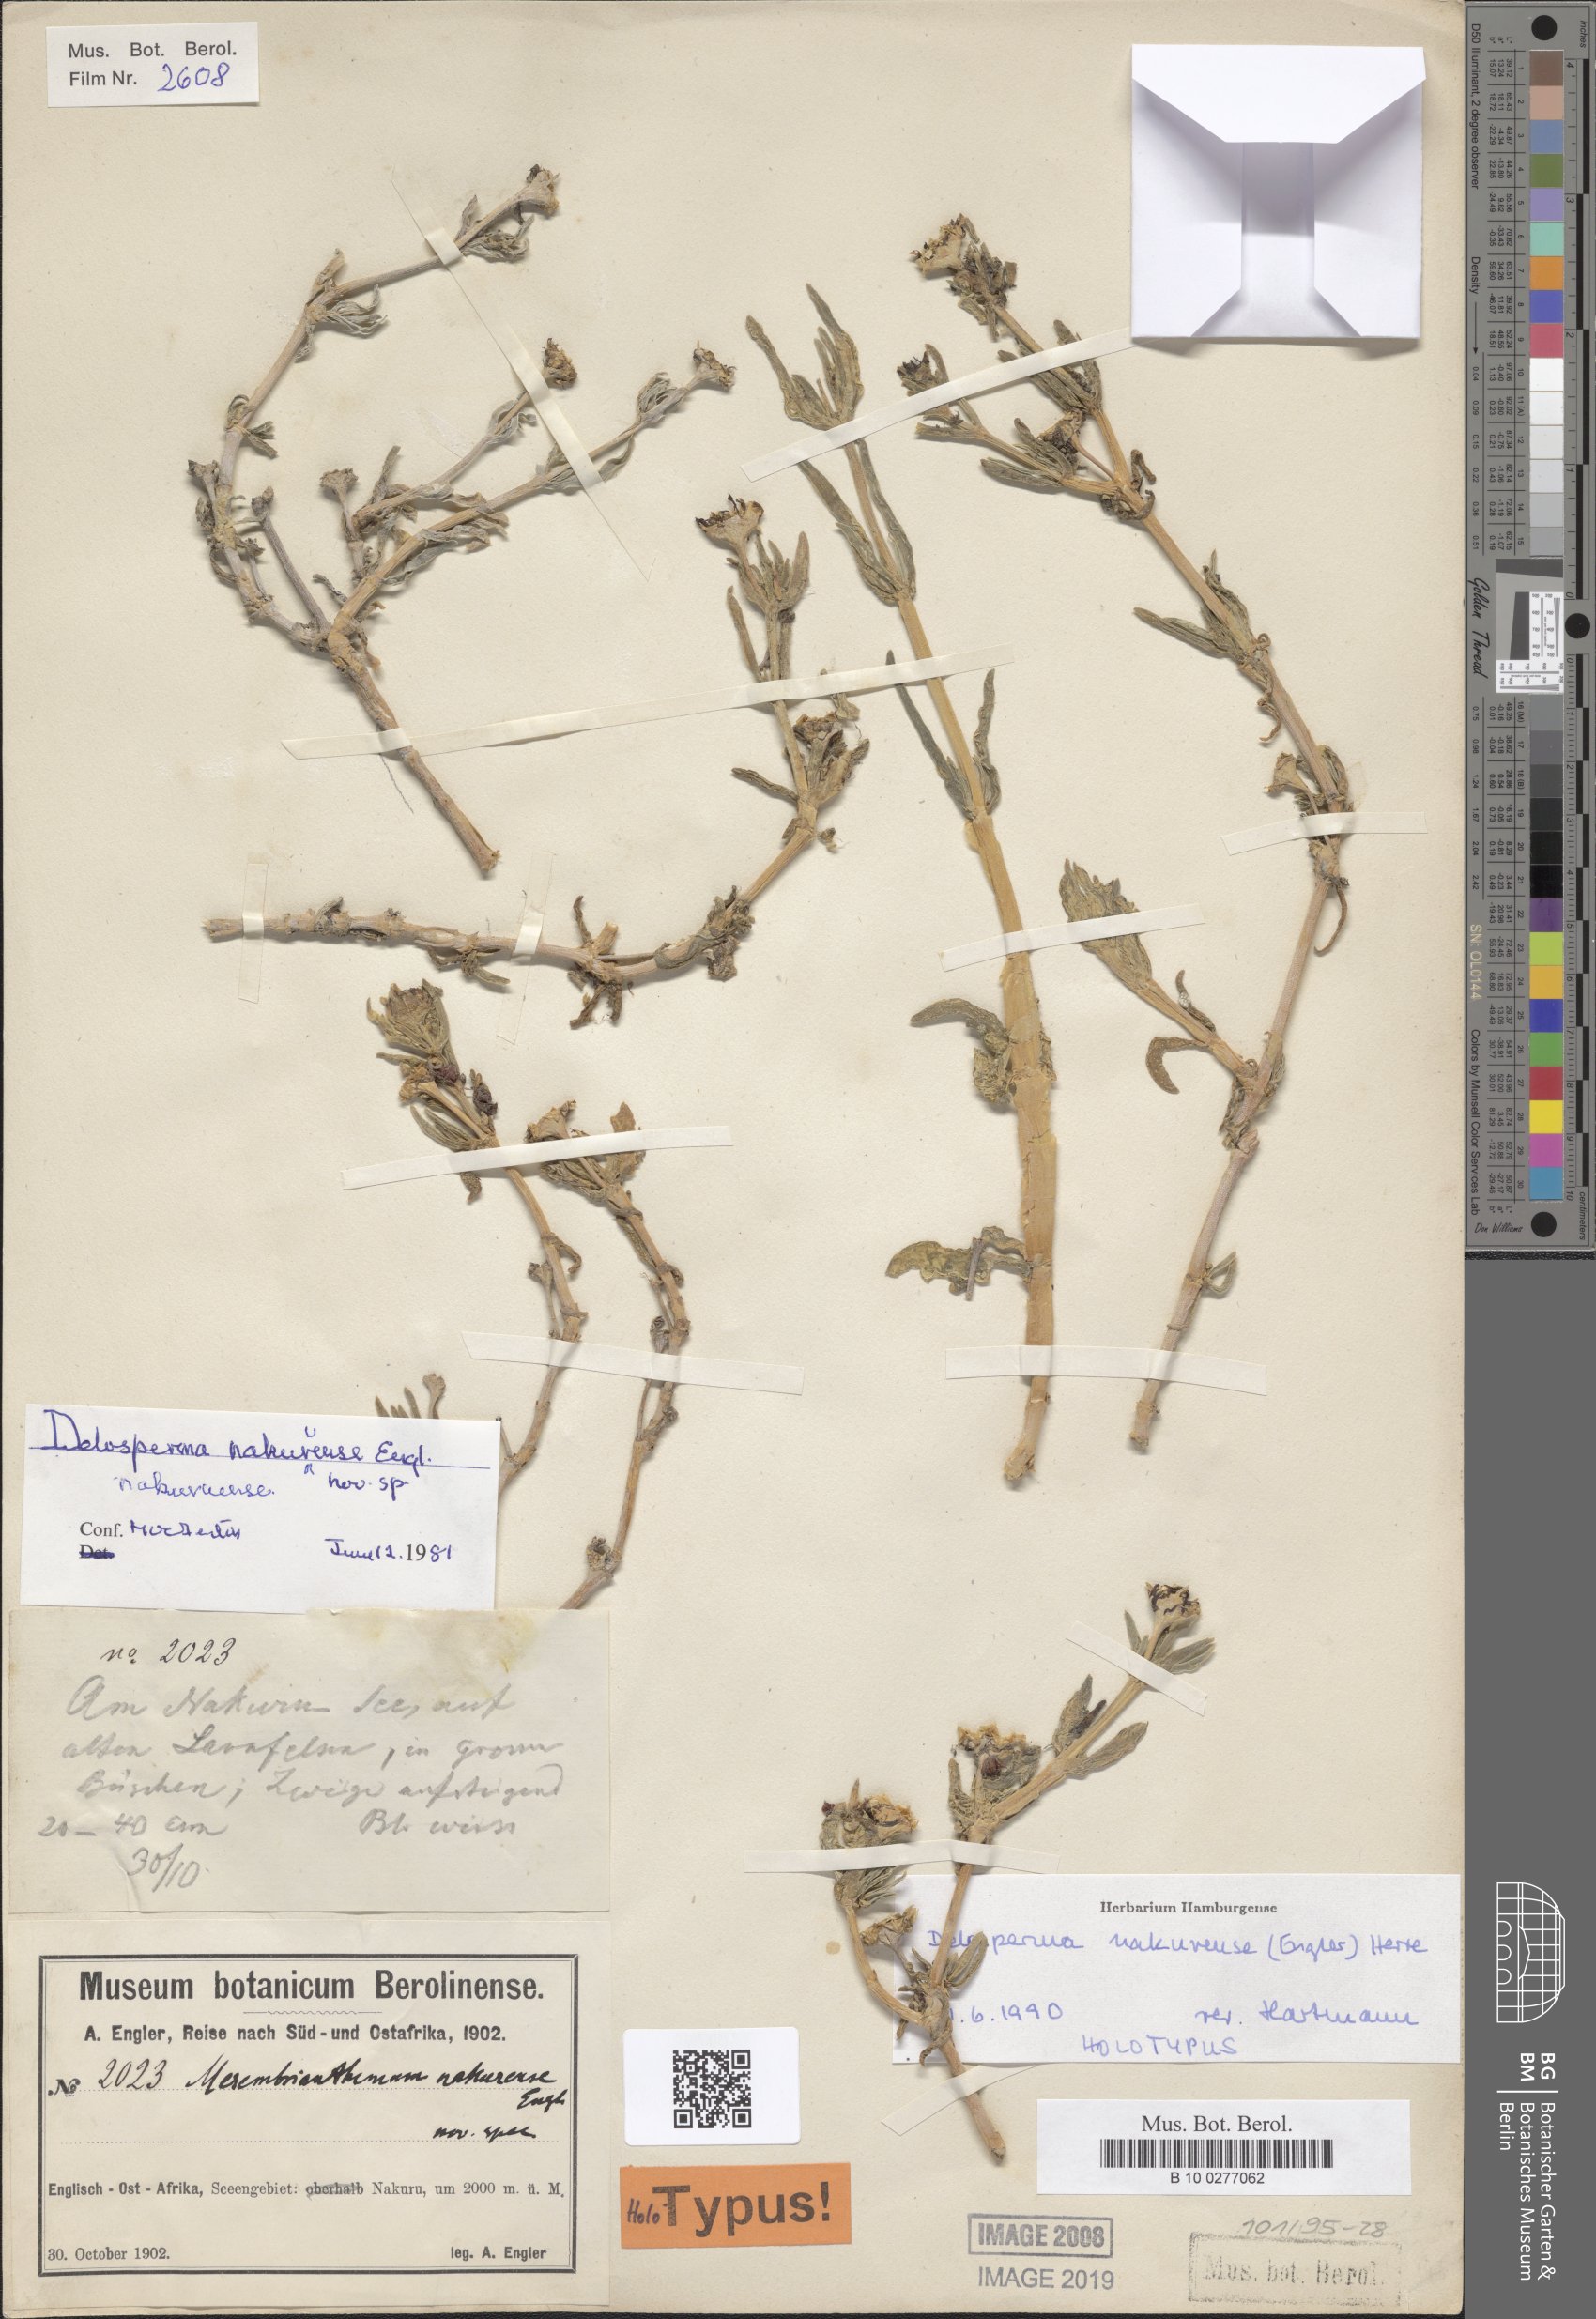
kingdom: Plantae
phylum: Tracheophyta
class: Magnoliopsida
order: Caryophyllales
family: Aizoaceae
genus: Delosperma
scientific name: Delosperma nakurense
